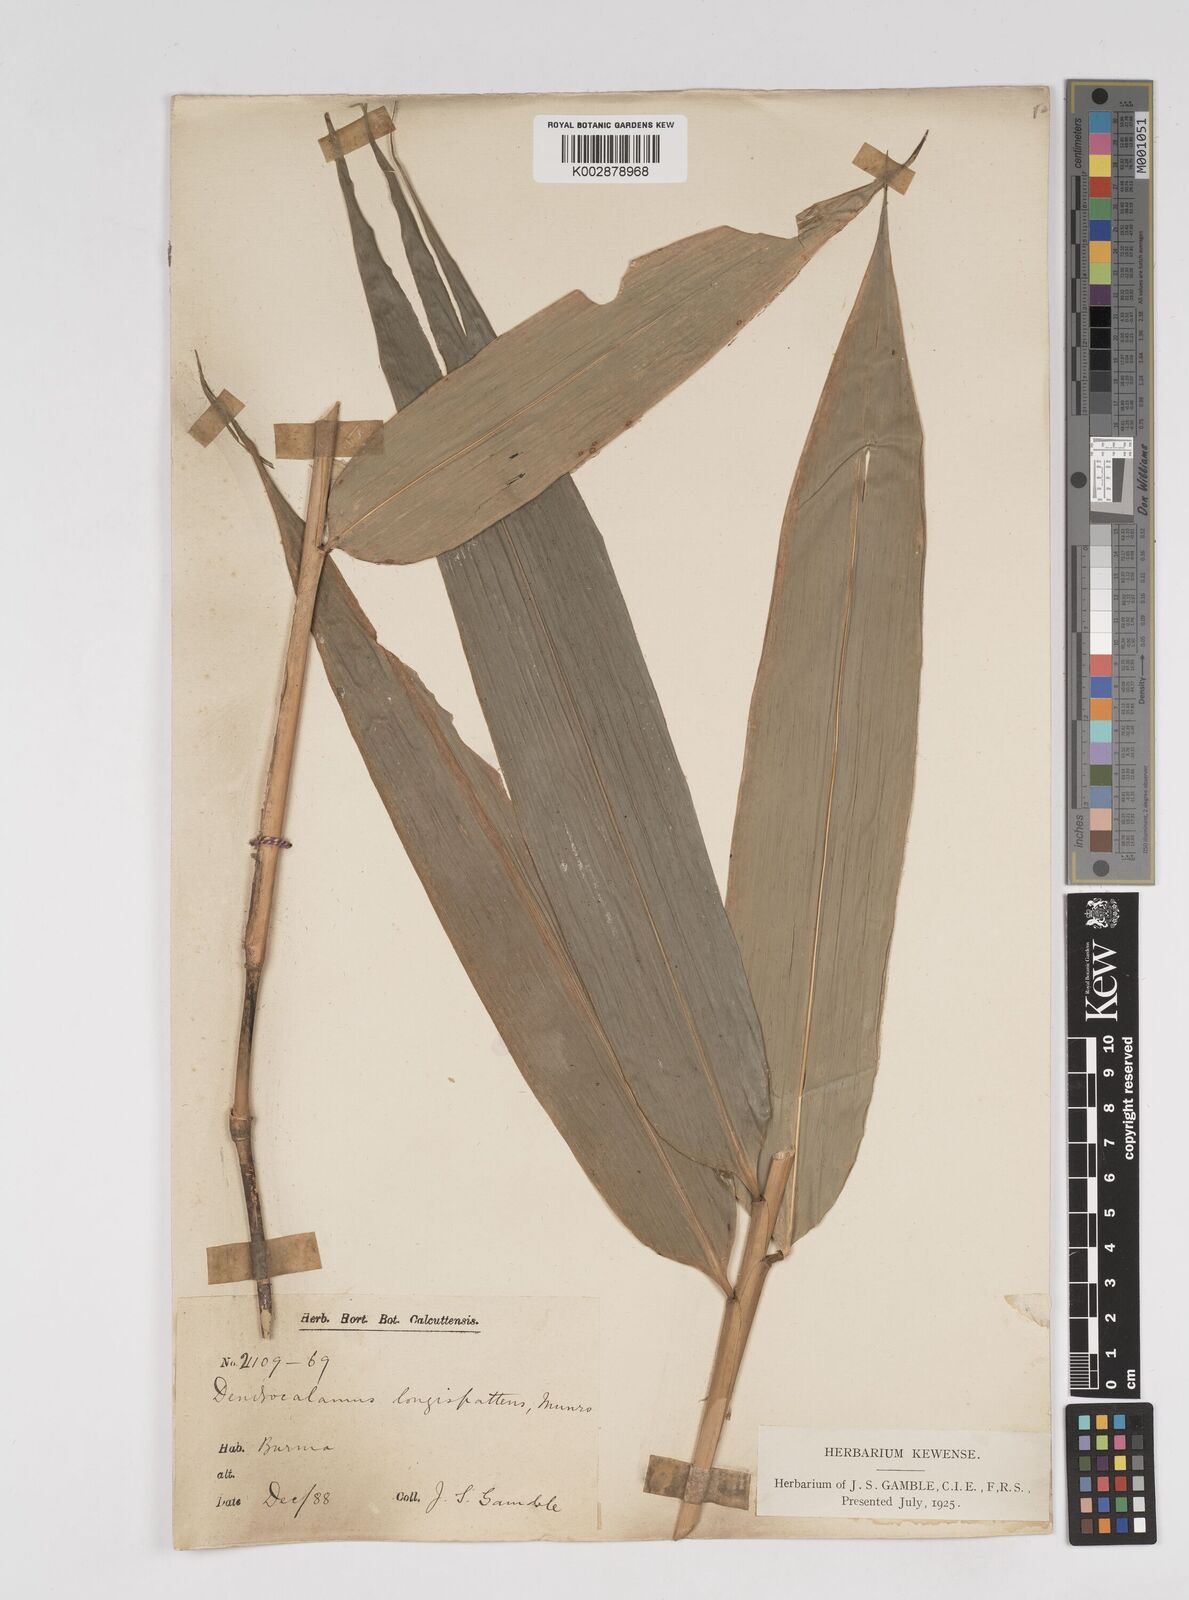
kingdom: Plantae
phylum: Tracheophyta
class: Liliopsida
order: Poales
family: Poaceae
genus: Dendrocalamus
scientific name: Dendrocalamus longispathus
